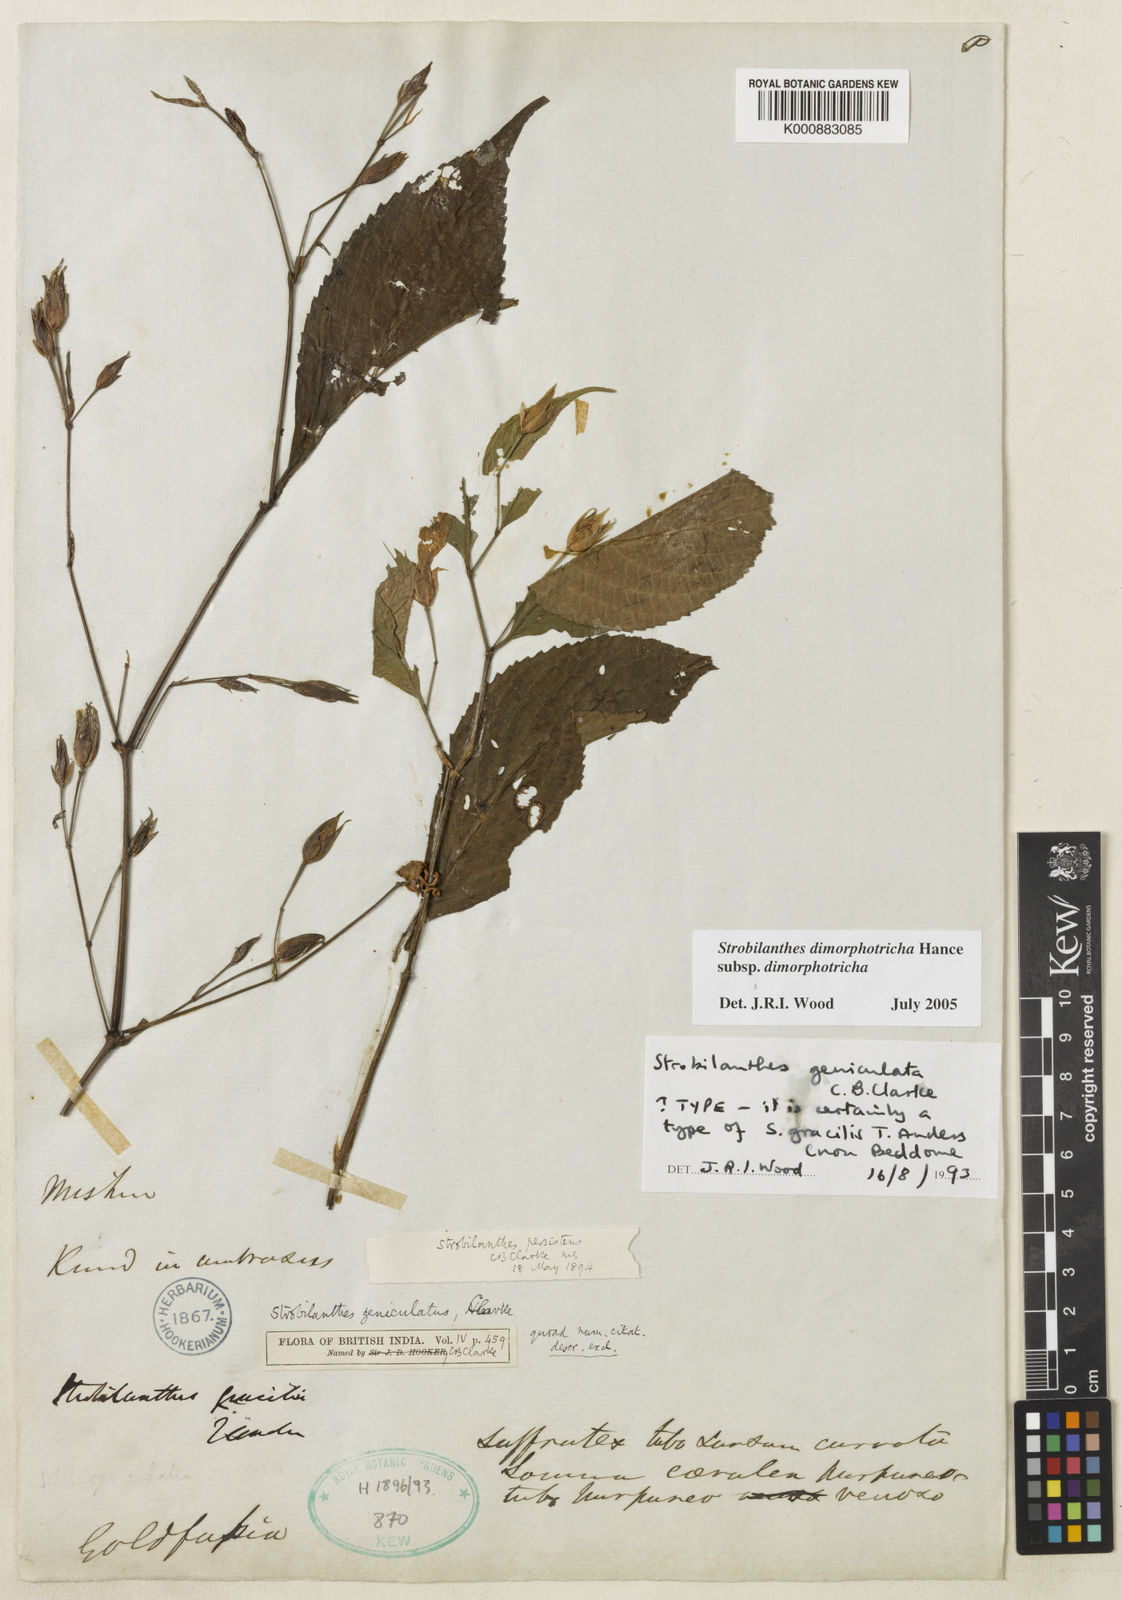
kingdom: Plantae
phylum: Tracheophyta
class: Magnoliopsida
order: Lamiales
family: Acanthaceae
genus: Strobilanthes
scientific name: Strobilanthes dimorphotricha
